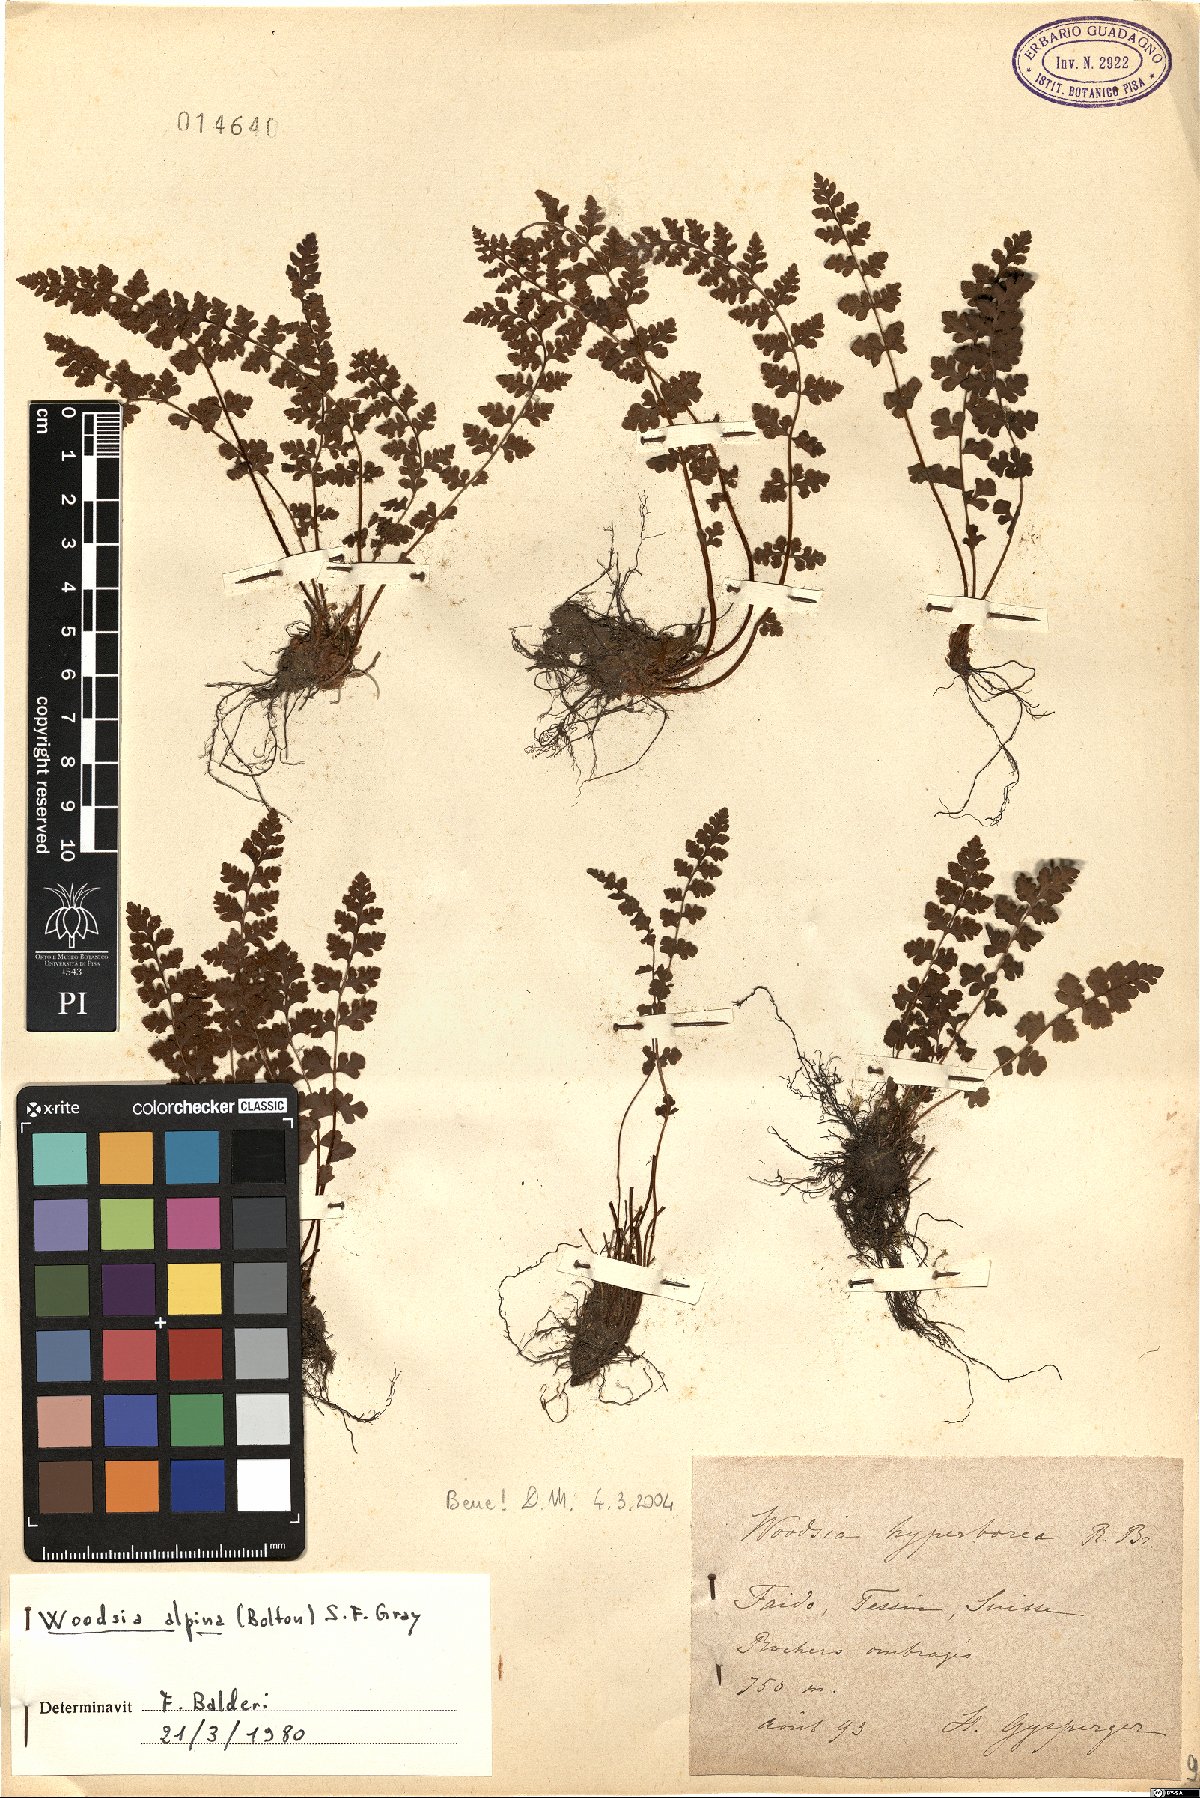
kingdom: Plantae
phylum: Tracheophyta
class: Polypodiopsida
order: Polypodiales
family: Woodsiaceae
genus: Woodsia
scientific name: Woodsia alpina
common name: Alpine woodsia
